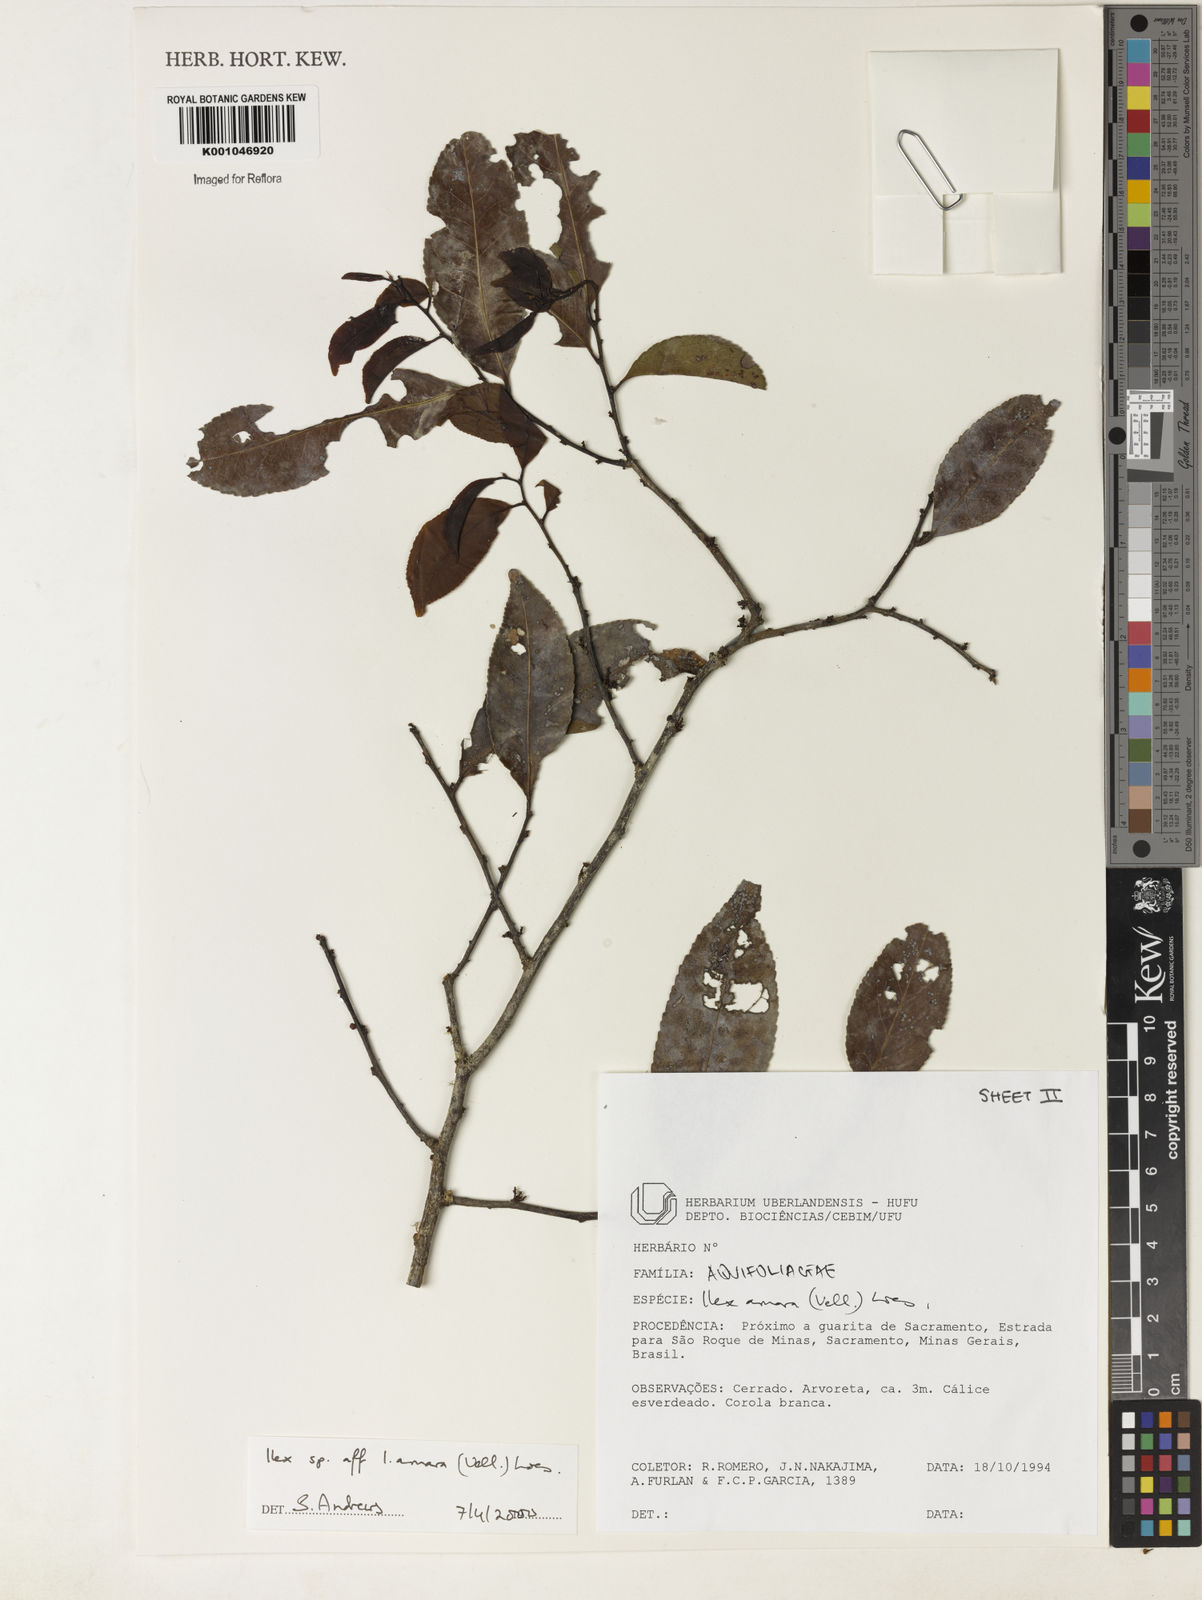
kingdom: Plantae
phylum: Tracheophyta
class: Magnoliopsida
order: Aquifoliales
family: Aquifoliaceae
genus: Ilex
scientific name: Ilex
